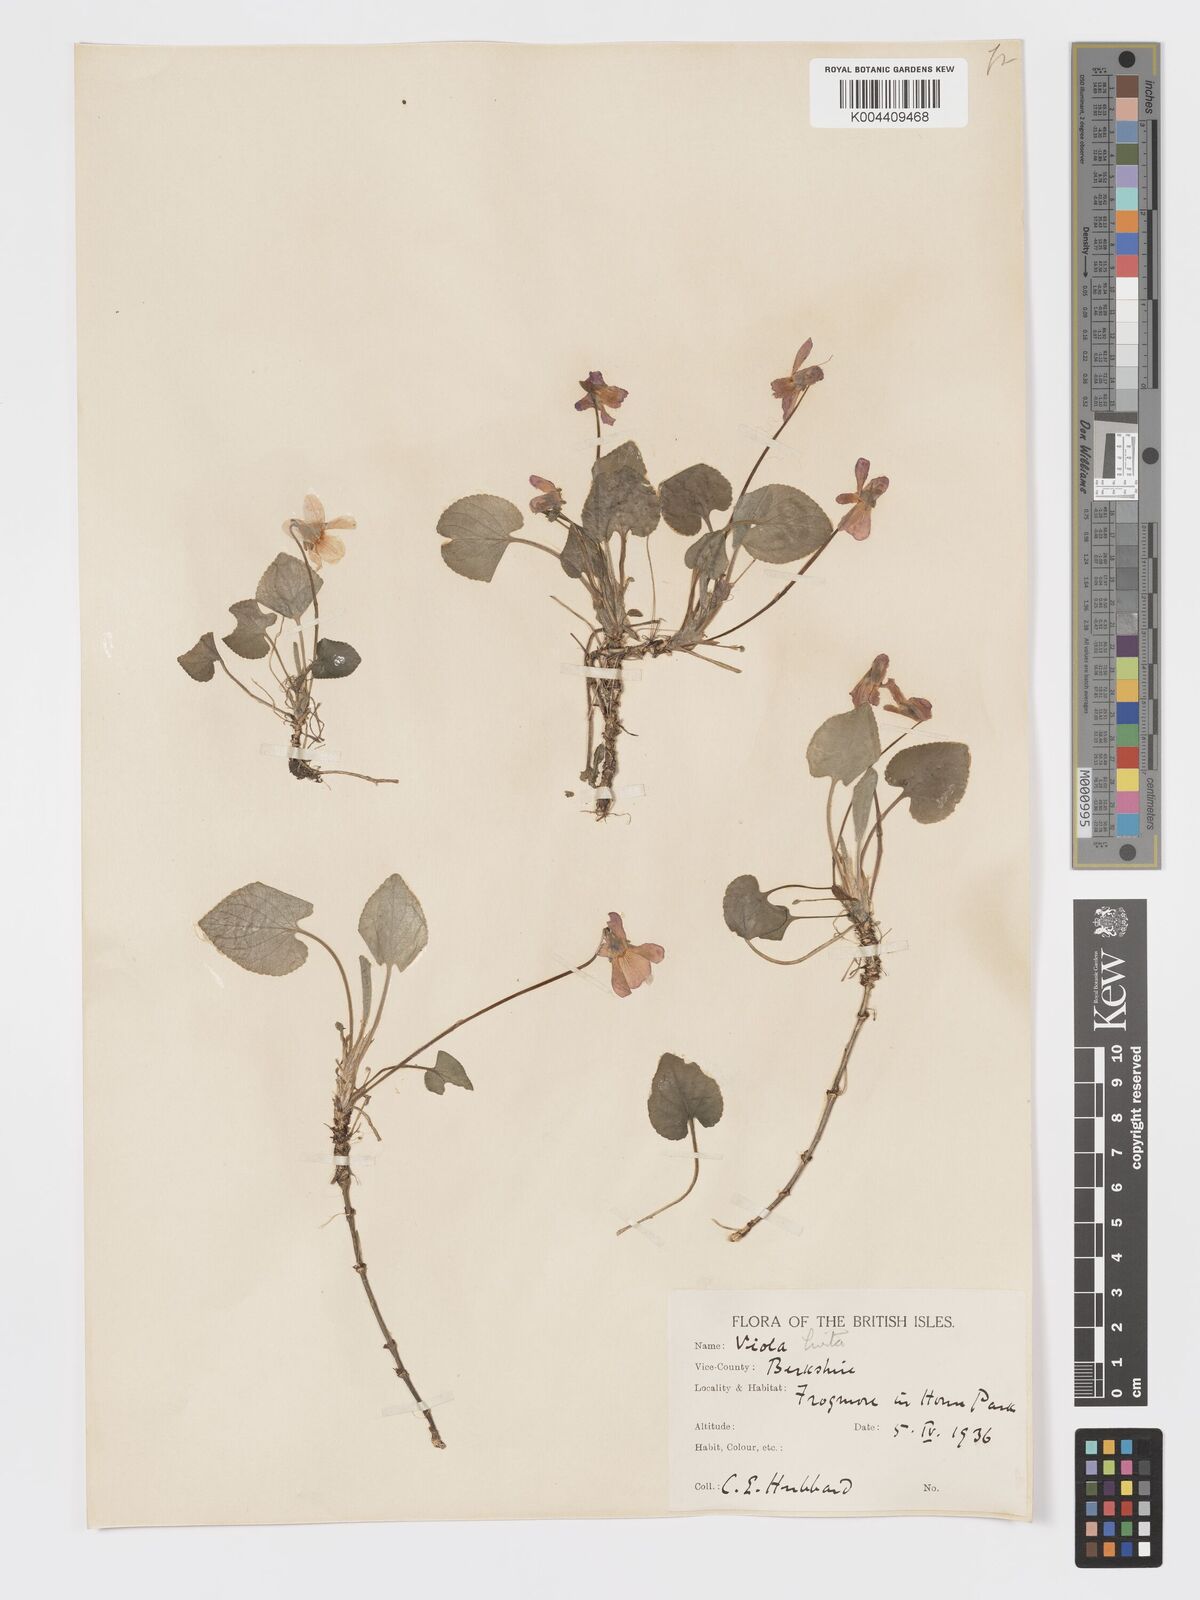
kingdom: Plantae
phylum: Tracheophyta
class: Magnoliopsida
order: Malpighiales
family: Violaceae
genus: Viola
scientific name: Viola
